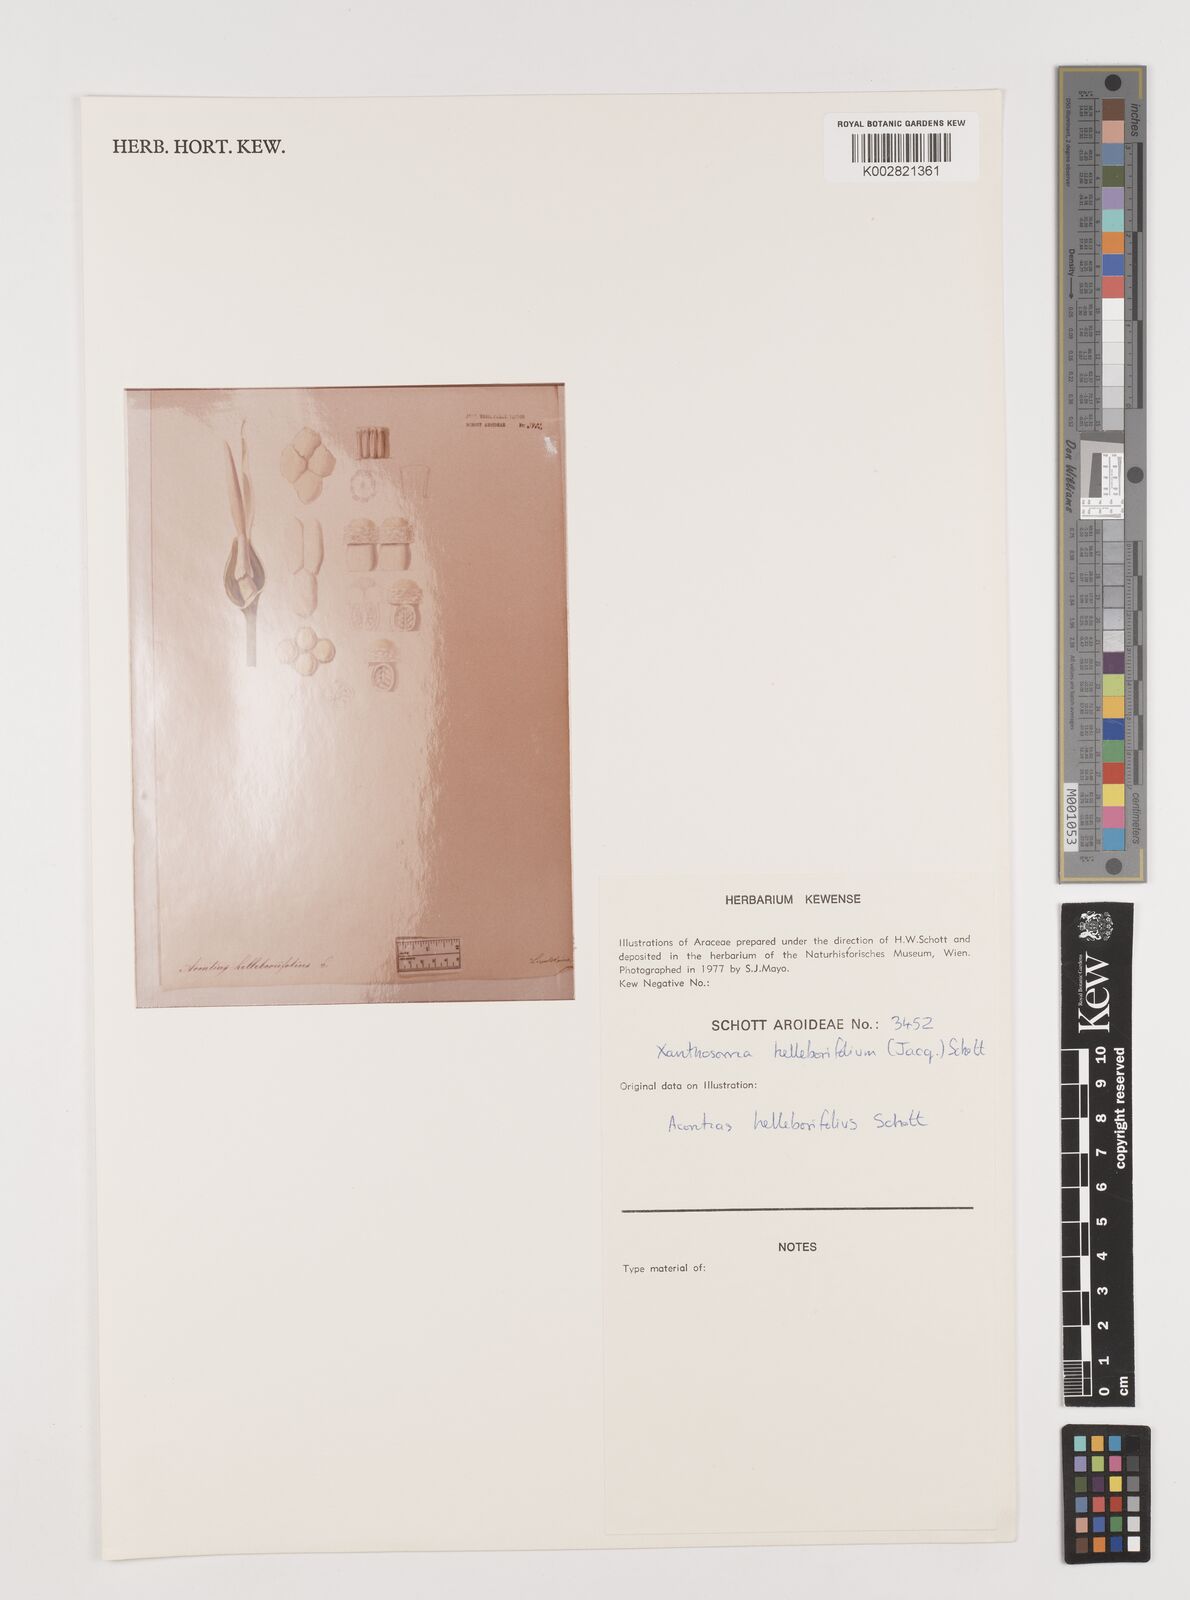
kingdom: Plantae
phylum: Tracheophyta
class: Liliopsida
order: Alismatales
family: Araceae
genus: Xanthosoma
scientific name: Xanthosoma helleborifolium
